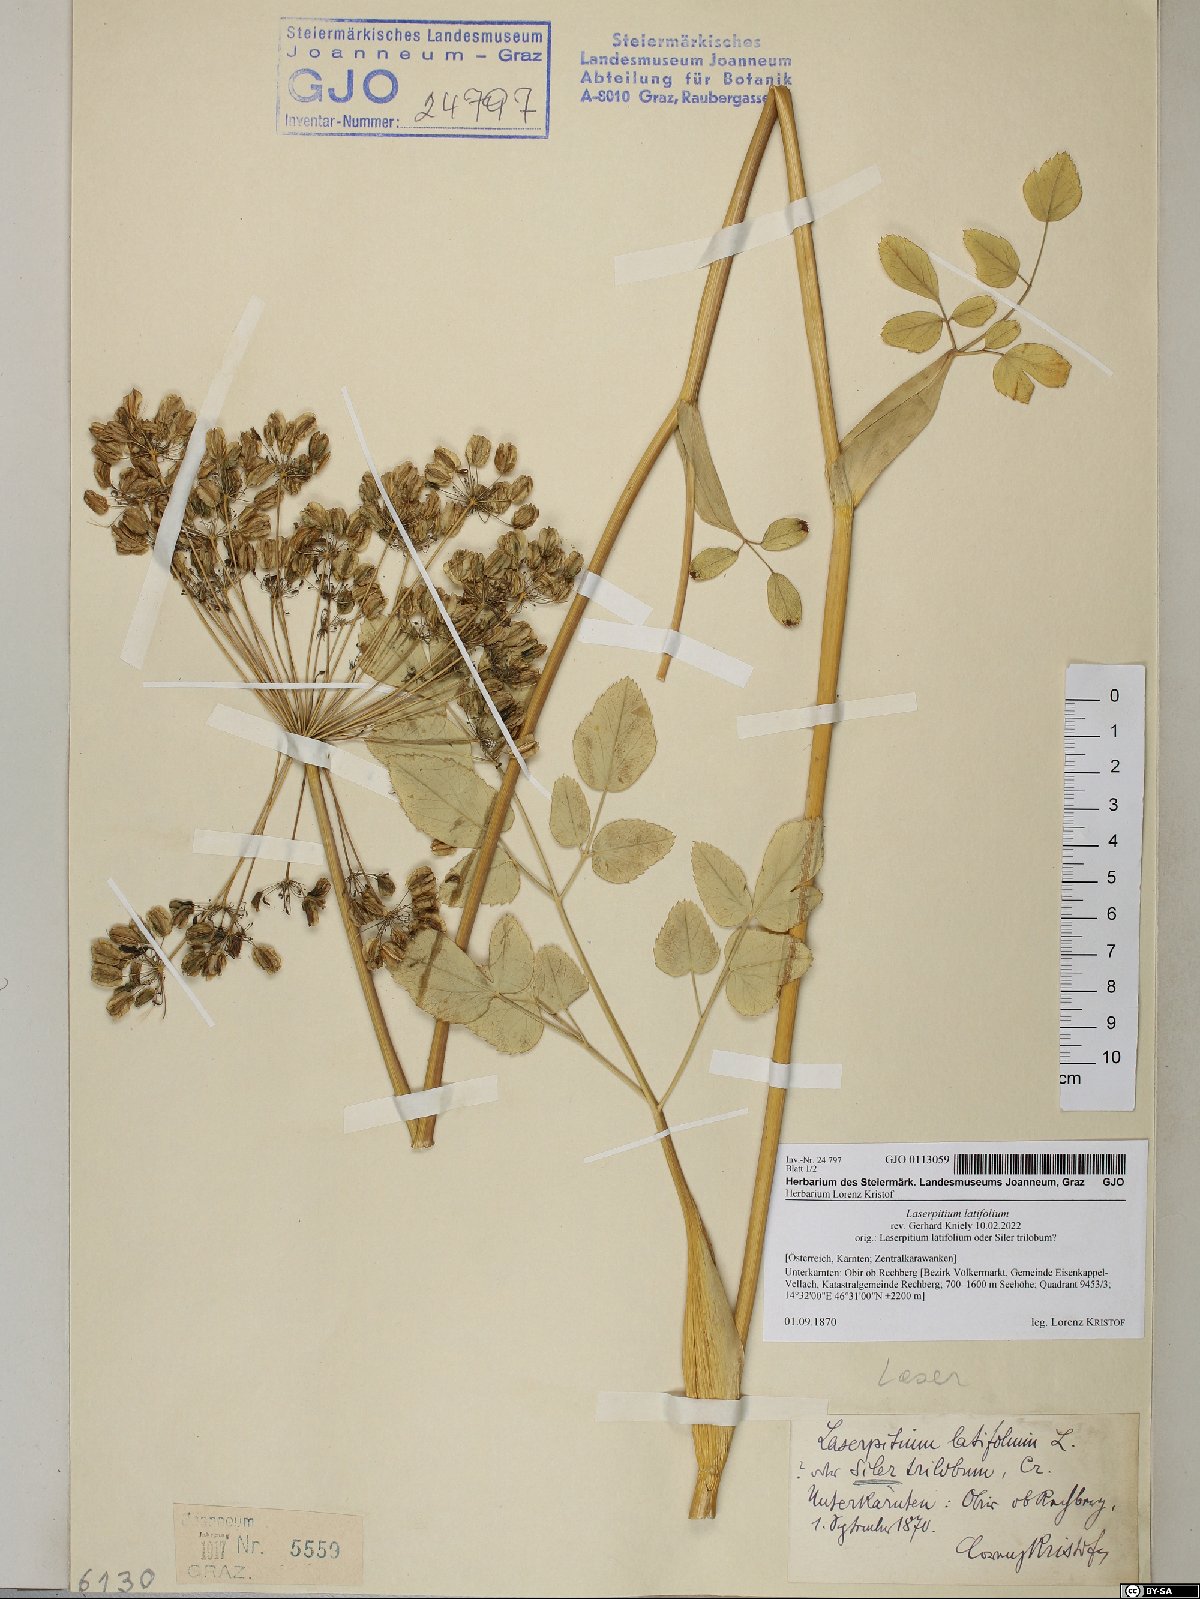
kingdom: Plantae
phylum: Tracheophyta
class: Magnoliopsida
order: Apiales
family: Apiaceae
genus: Laserpitium
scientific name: Laserpitium latifolium
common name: Broadleaf sermountain
